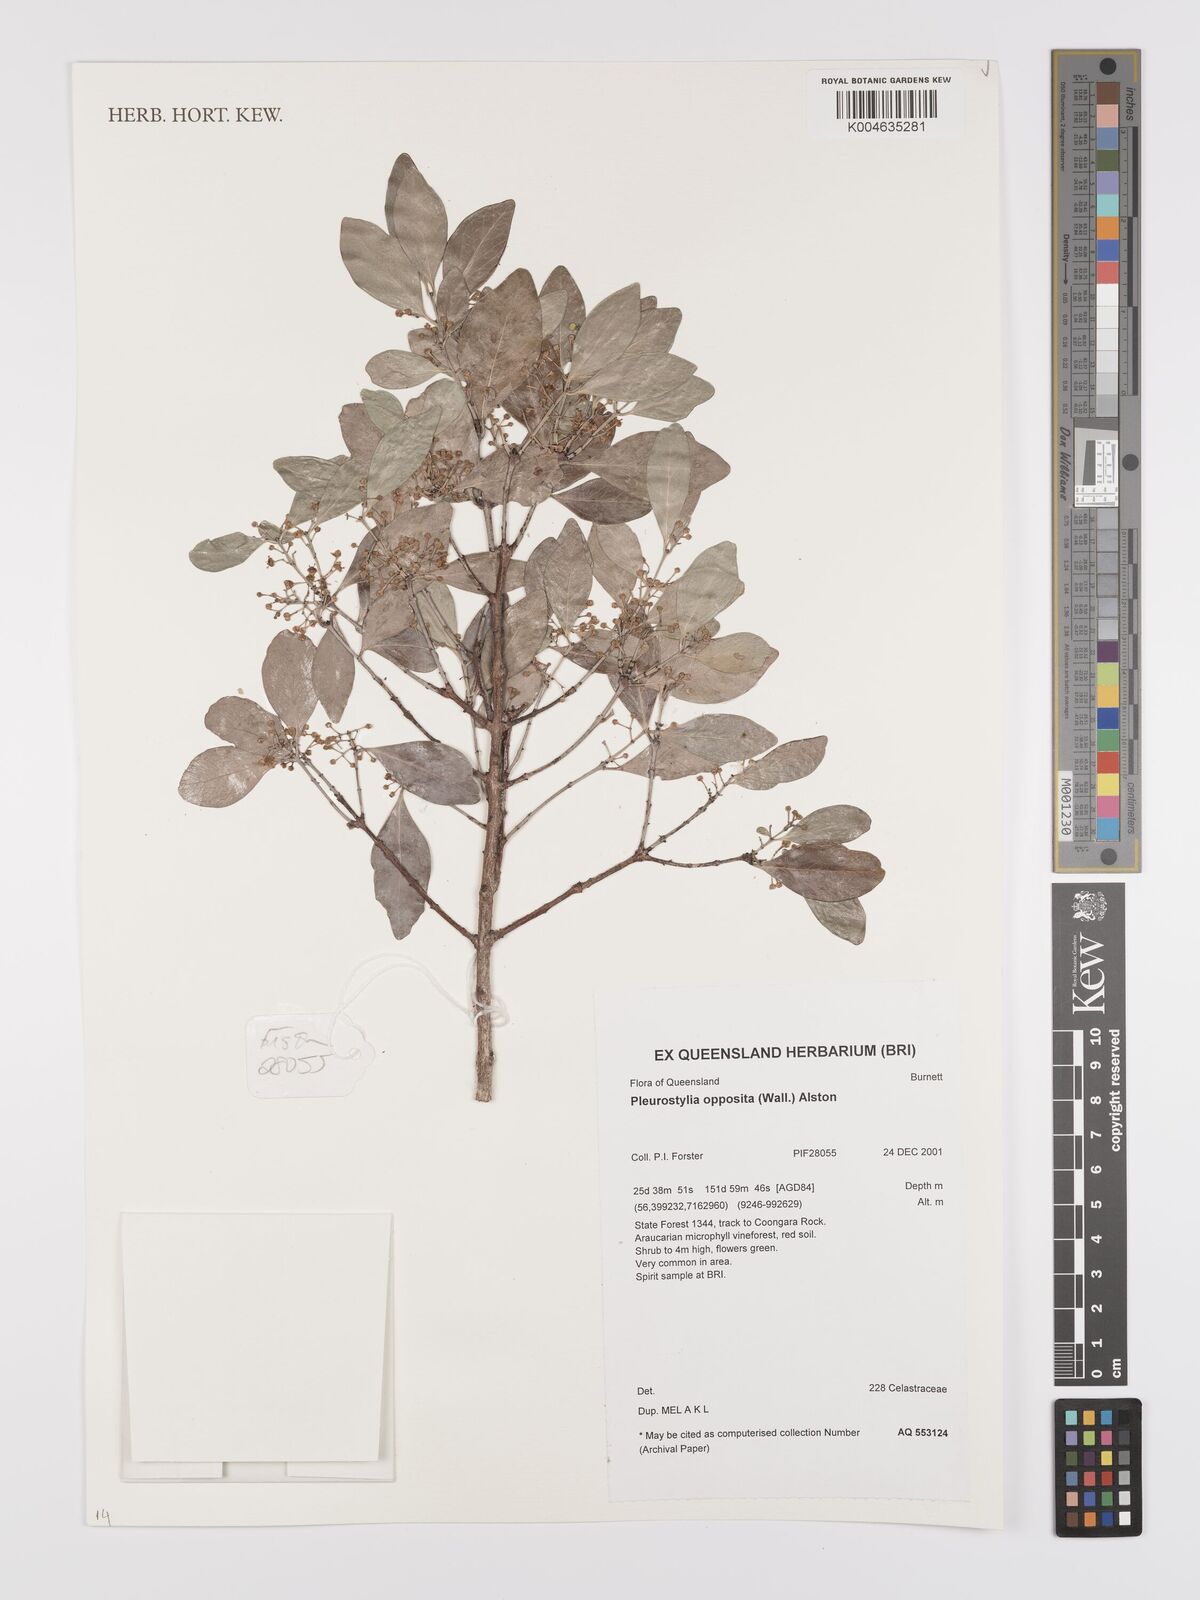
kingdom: Plantae
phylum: Tracheophyta
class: Magnoliopsida
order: Celastrales
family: Celastraceae
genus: Pleurostylia
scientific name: Pleurostylia opposita
